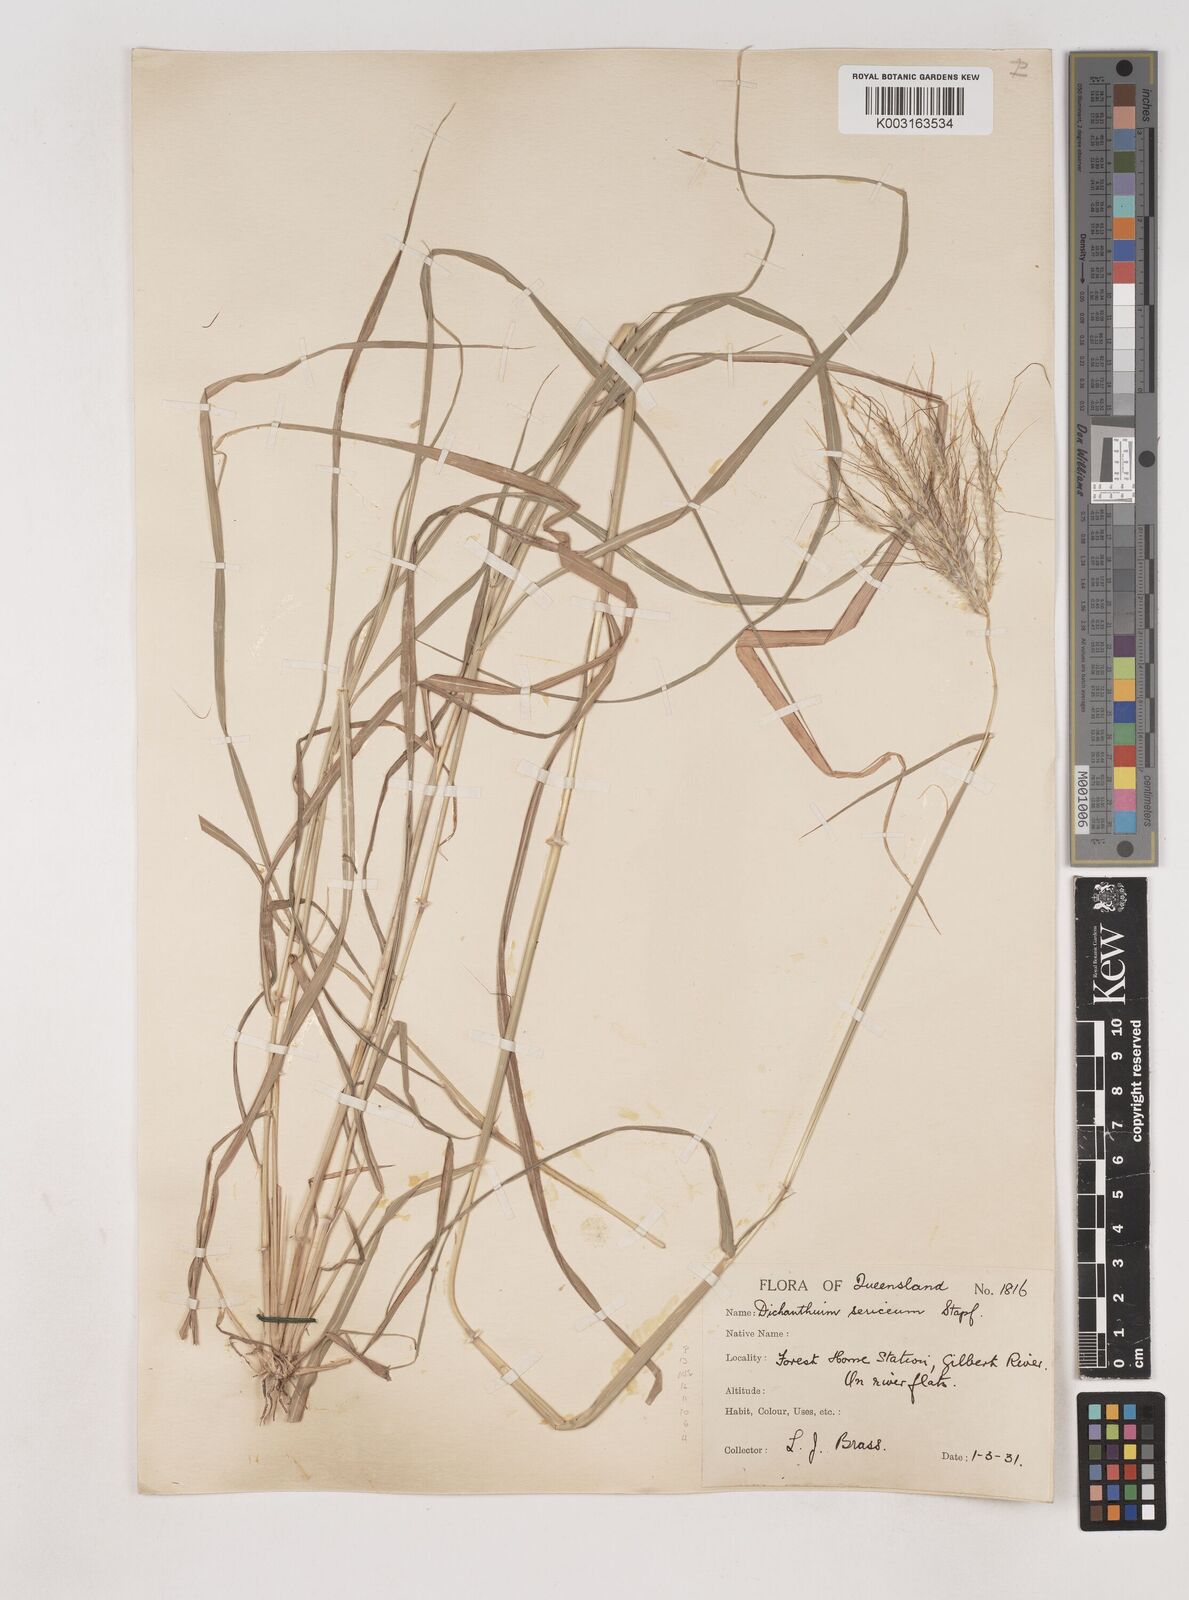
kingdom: Plantae
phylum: Tracheophyta
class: Liliopsida
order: Poales
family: Poaceae
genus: Dichanthium
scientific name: Dichanthium sericeum
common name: Silky bluestem
